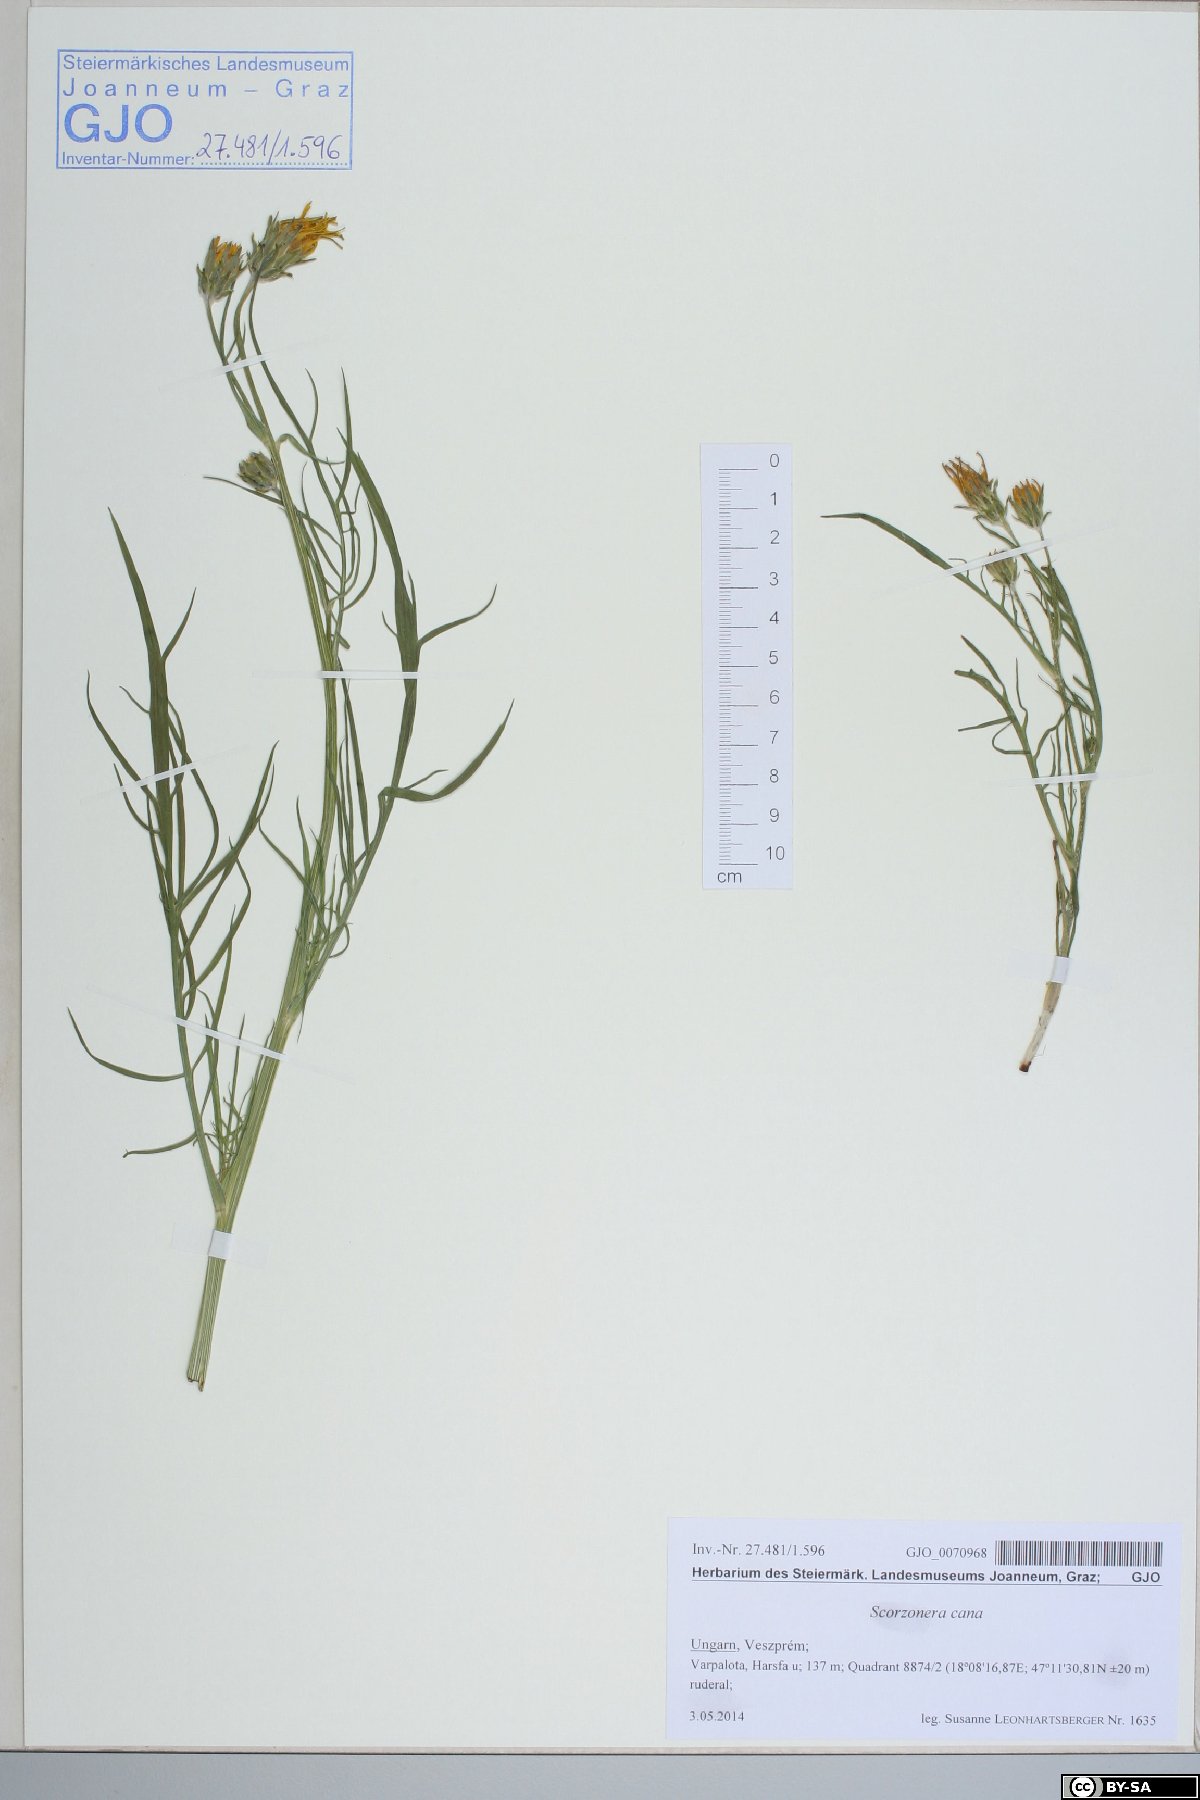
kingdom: Plantae
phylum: Tracheophyta
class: Magnoliopsida
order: Asterales
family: Asteraceae
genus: Scorzonera
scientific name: Scorzonera cana
